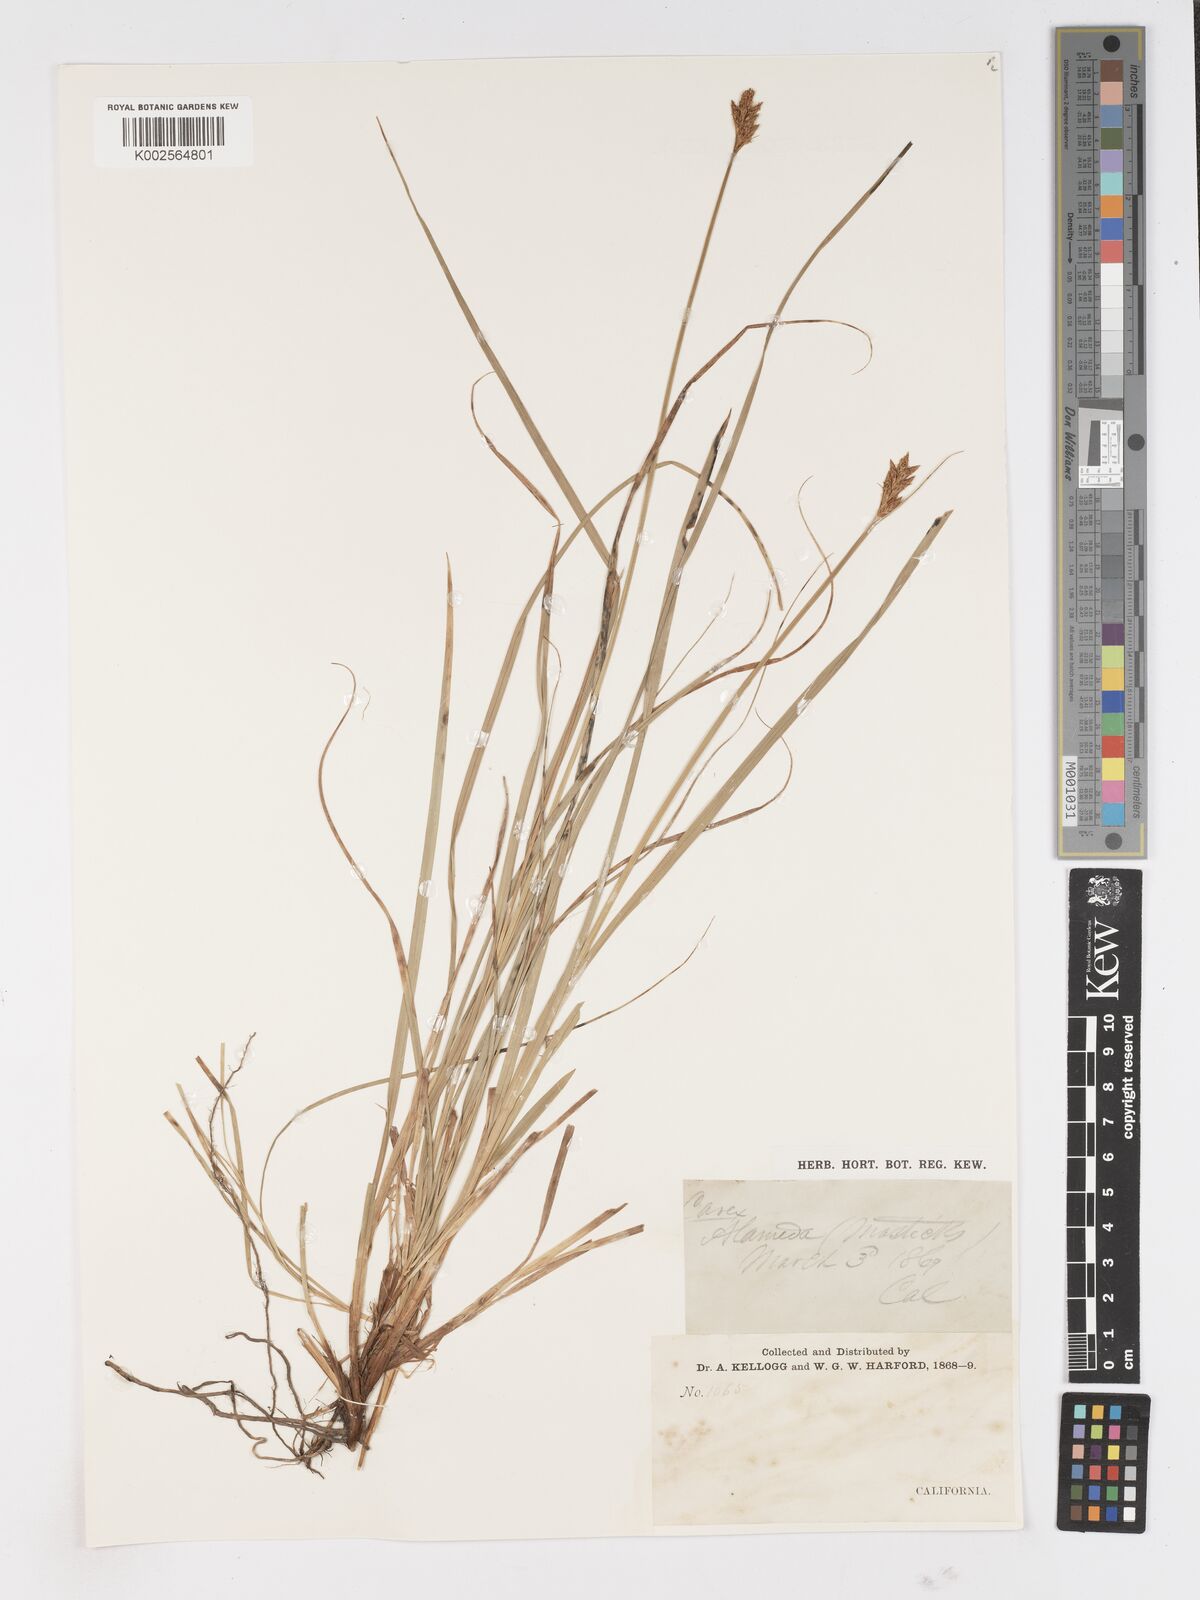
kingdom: Plantae
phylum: Tracheophyta
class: Liliopsida
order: Poales
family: Cyperaceae
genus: Carex
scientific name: Carex
